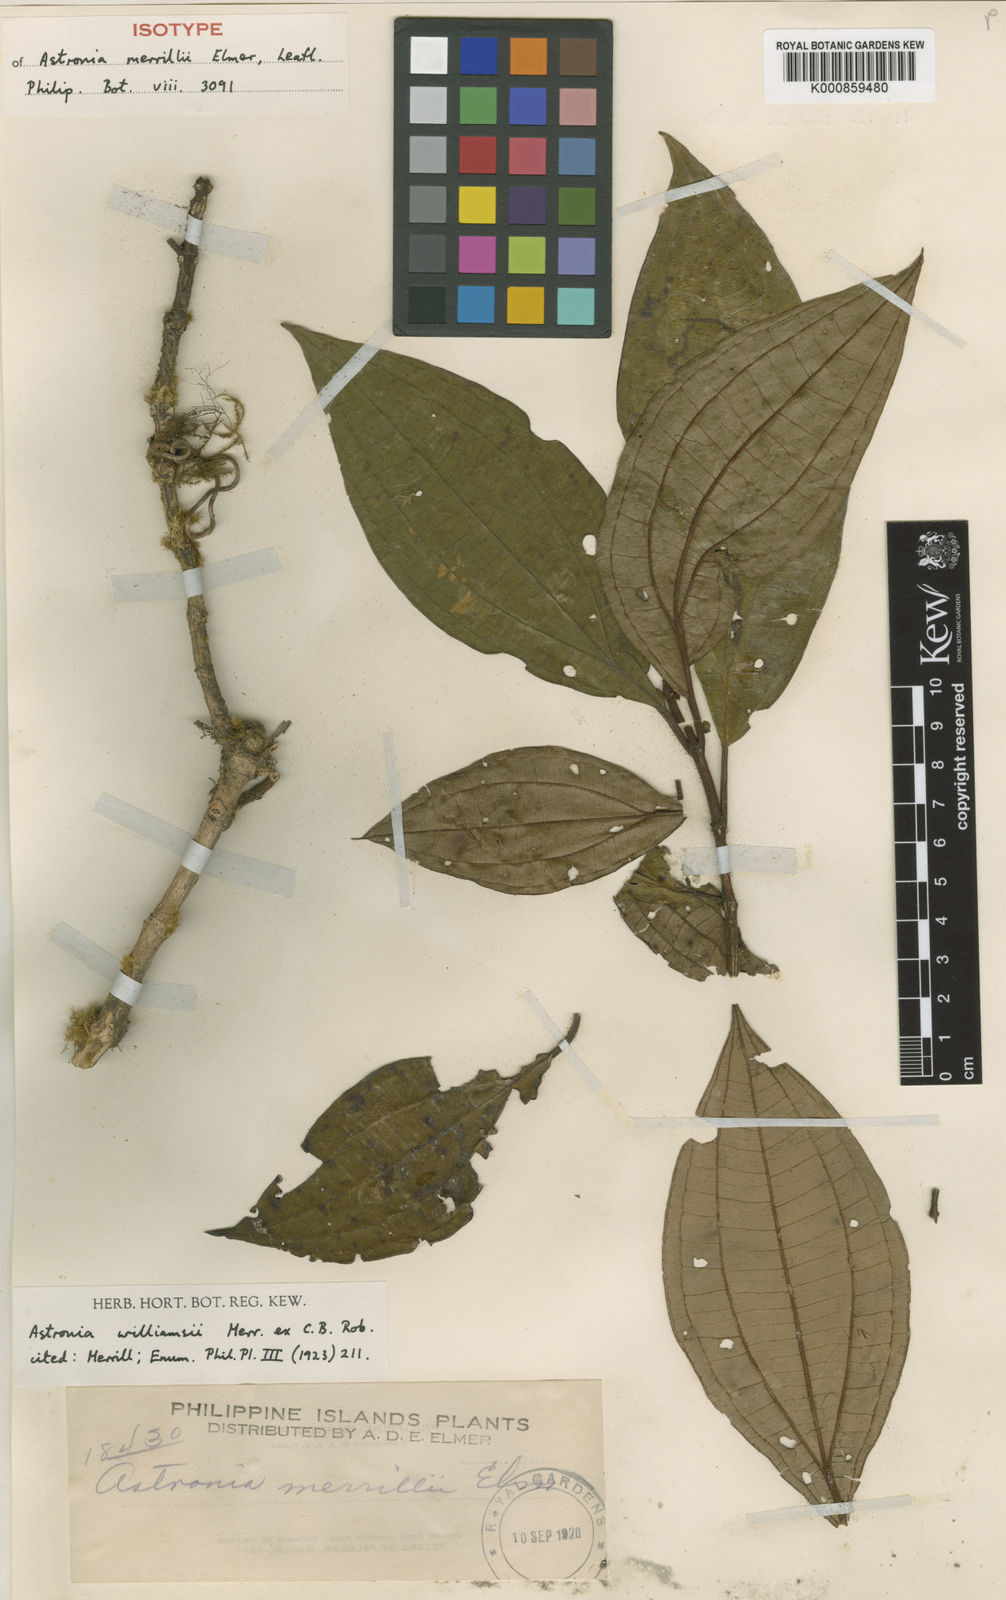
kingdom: Plantae
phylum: Tracheophyta
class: Magnoliopsida
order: Myrtales
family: Melastomataceae
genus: Astronia
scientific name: Astronia williamsii
